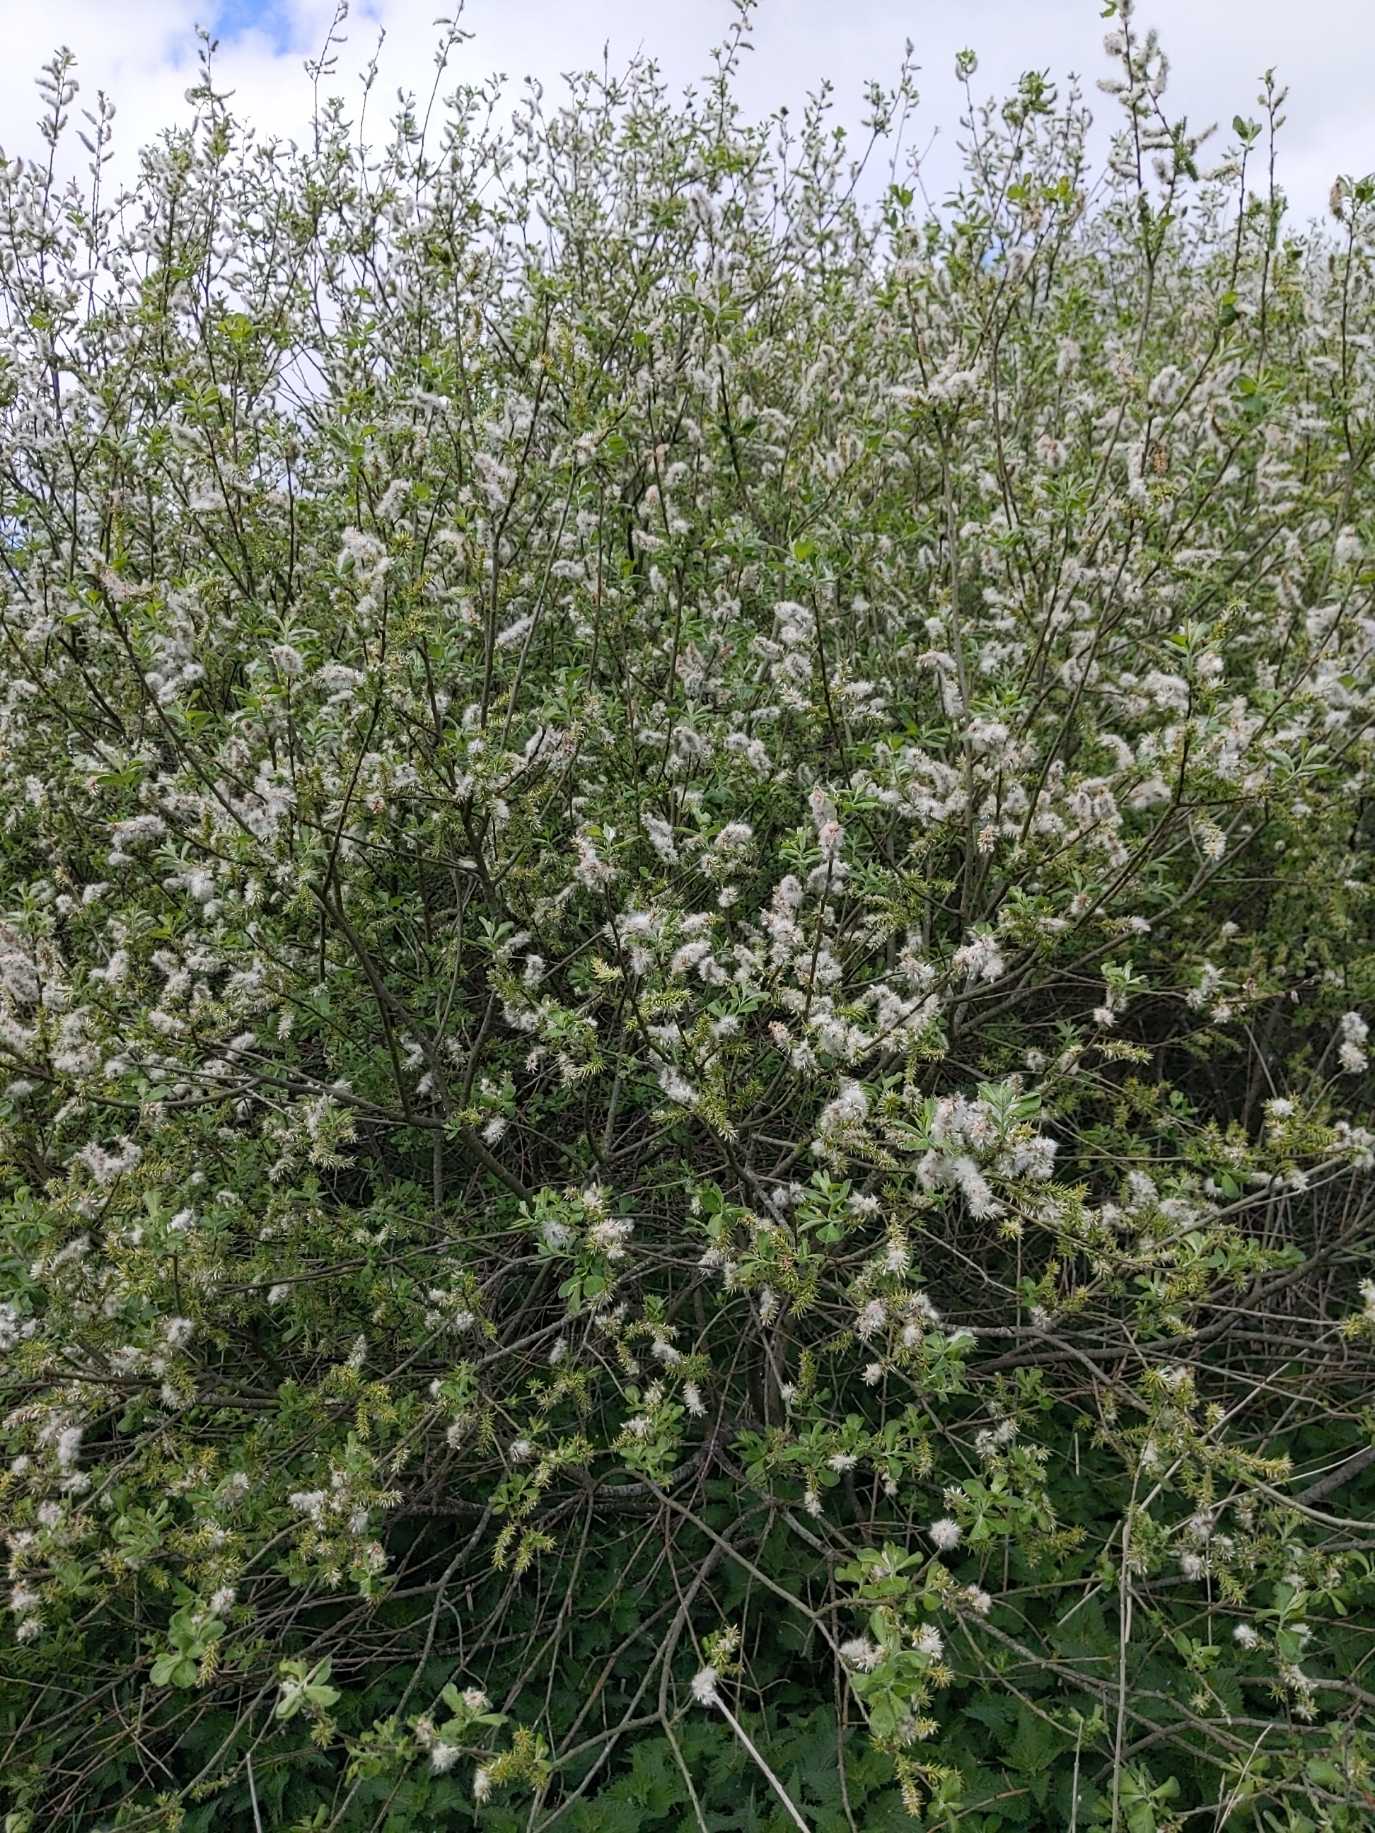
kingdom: Plantae
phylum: Tracheophyta
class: Magnoliopsida
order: Malpighiales
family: Salicaceae
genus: Salix
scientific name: Salix
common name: Pileslægten
